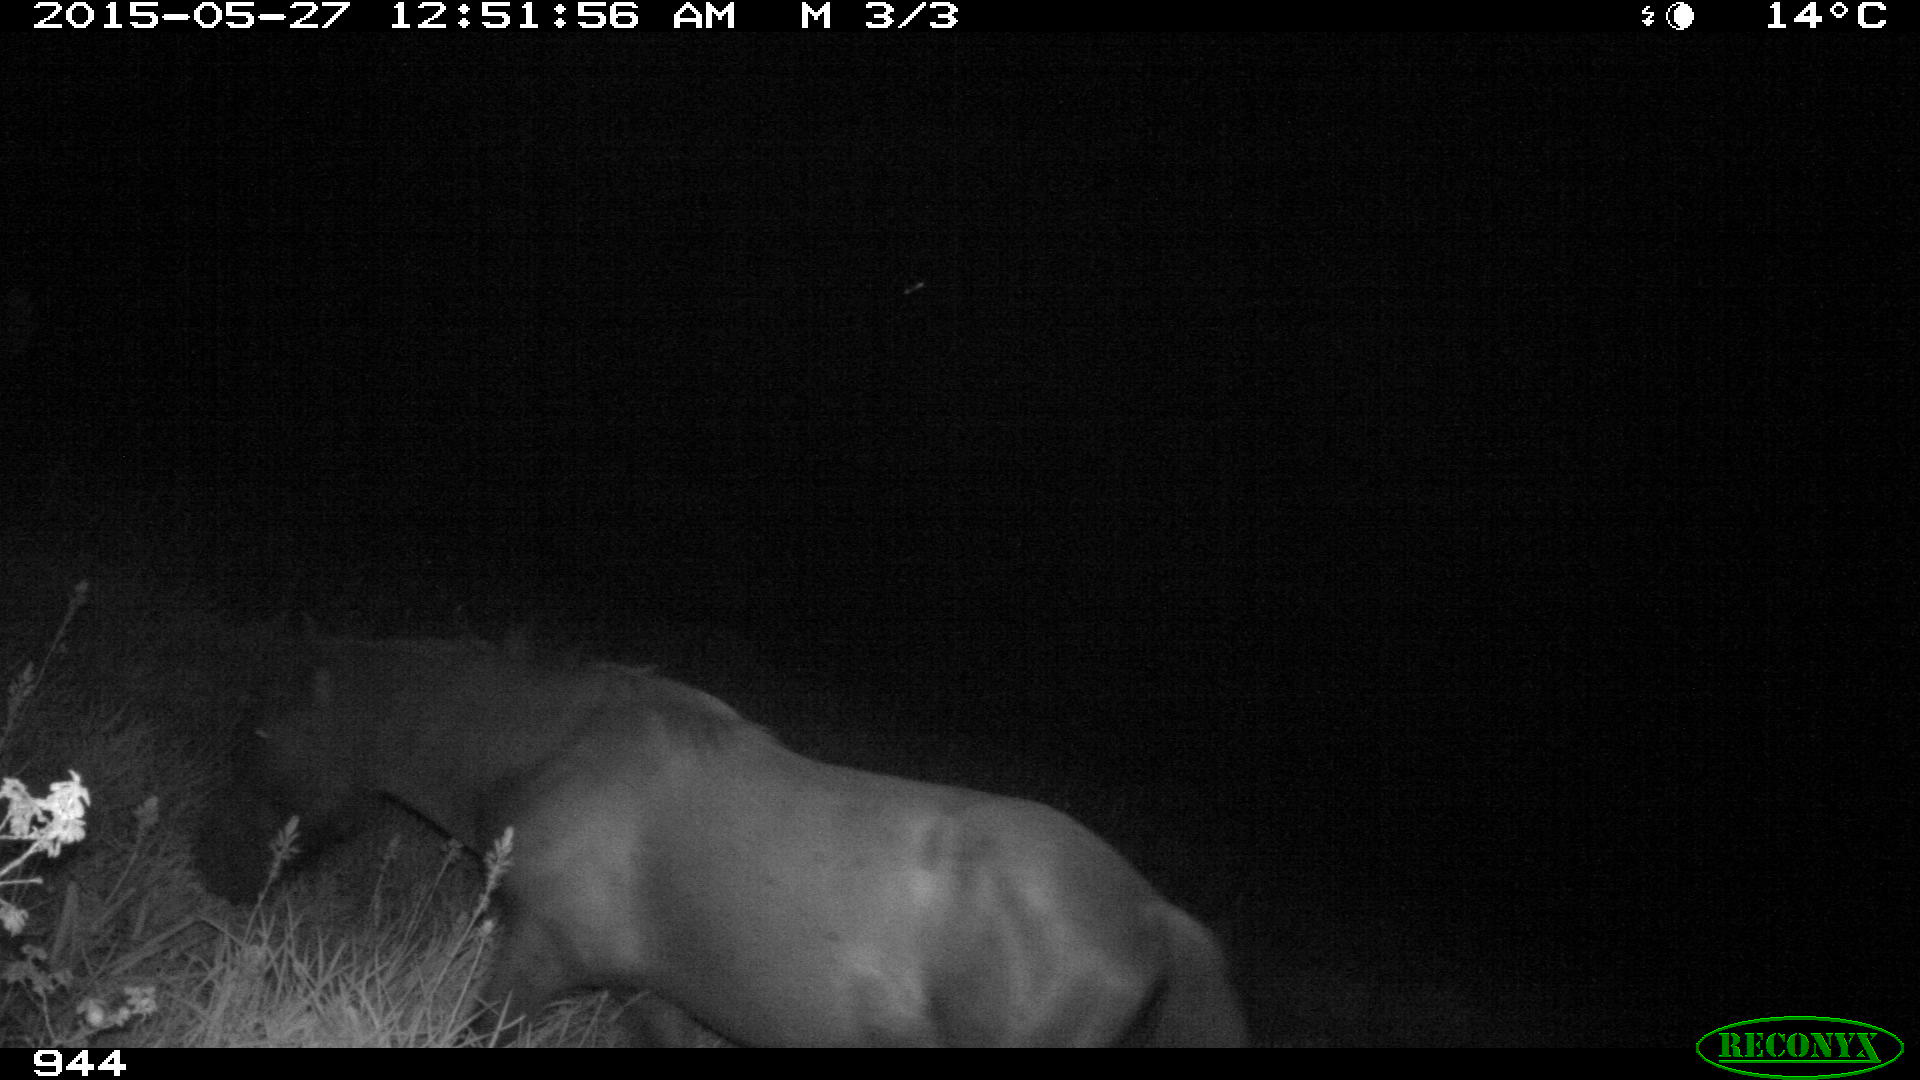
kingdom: Animalia
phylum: Chordata
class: Mammalia
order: Perissodactyla
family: Equidae
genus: Equus
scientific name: Equus caballus
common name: Horse
